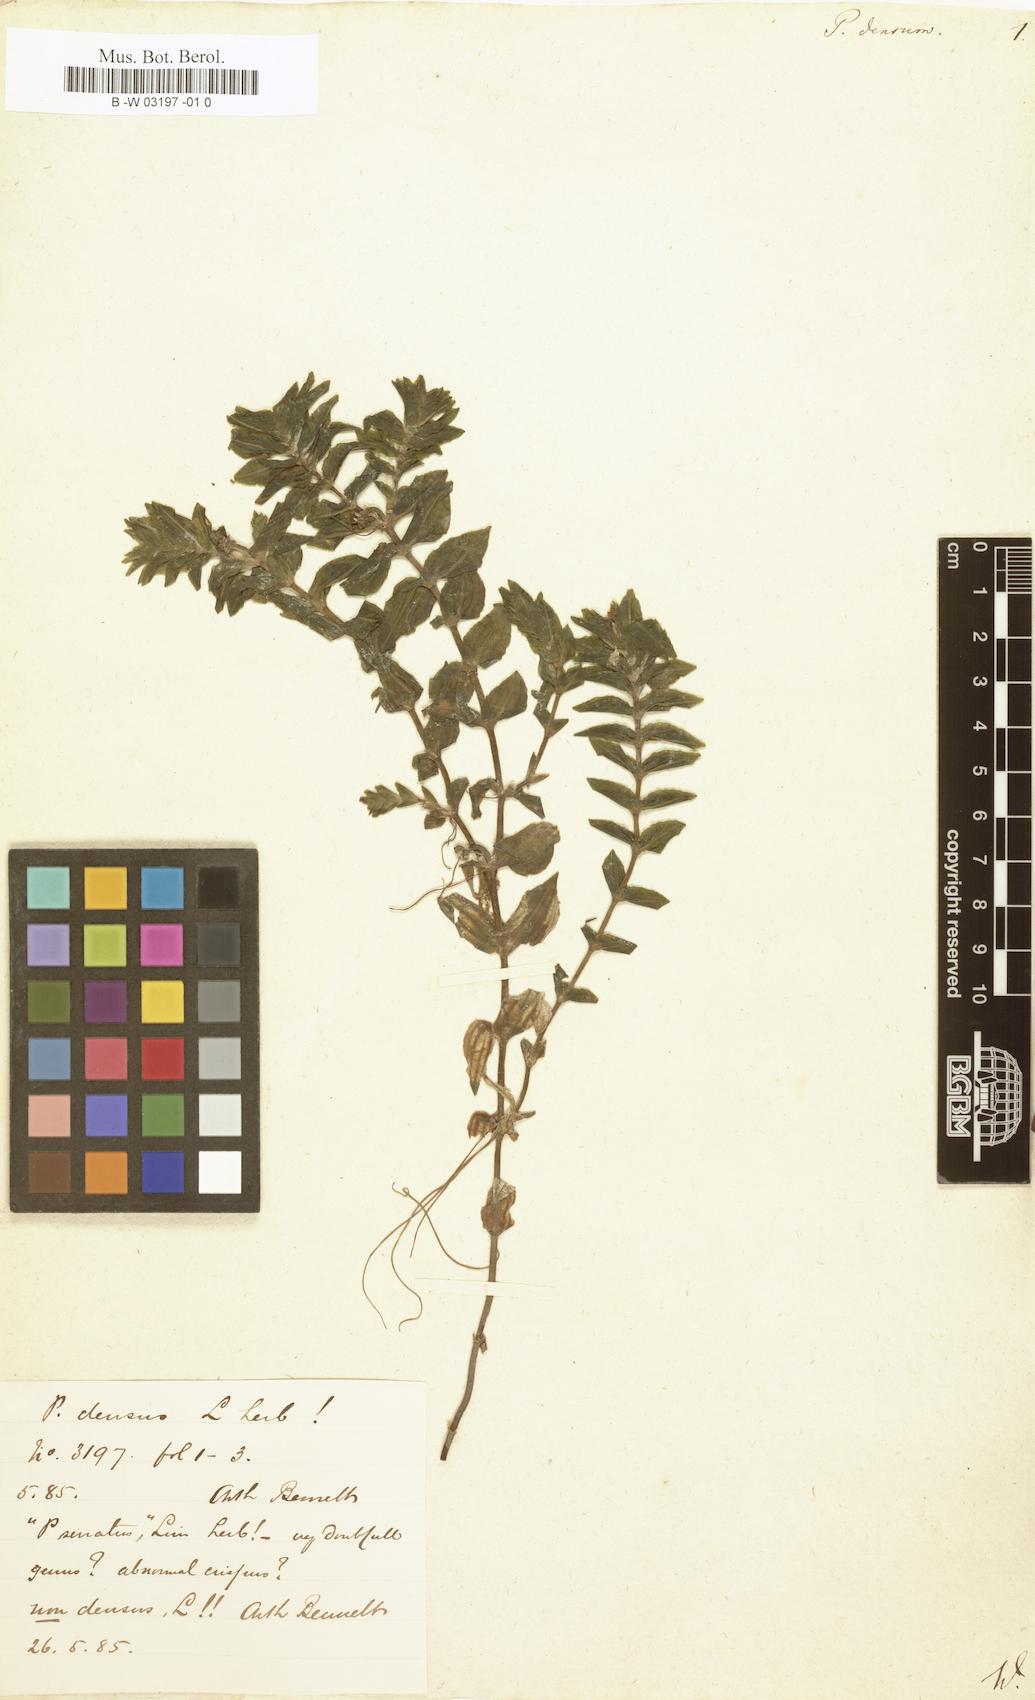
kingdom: Plantae
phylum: Tracheophyta
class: Liliopsida
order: Alismatales
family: Potamogetonaceae
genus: Groenlandia
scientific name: Groenlandia densa
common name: Opposite-leaved pondweed
